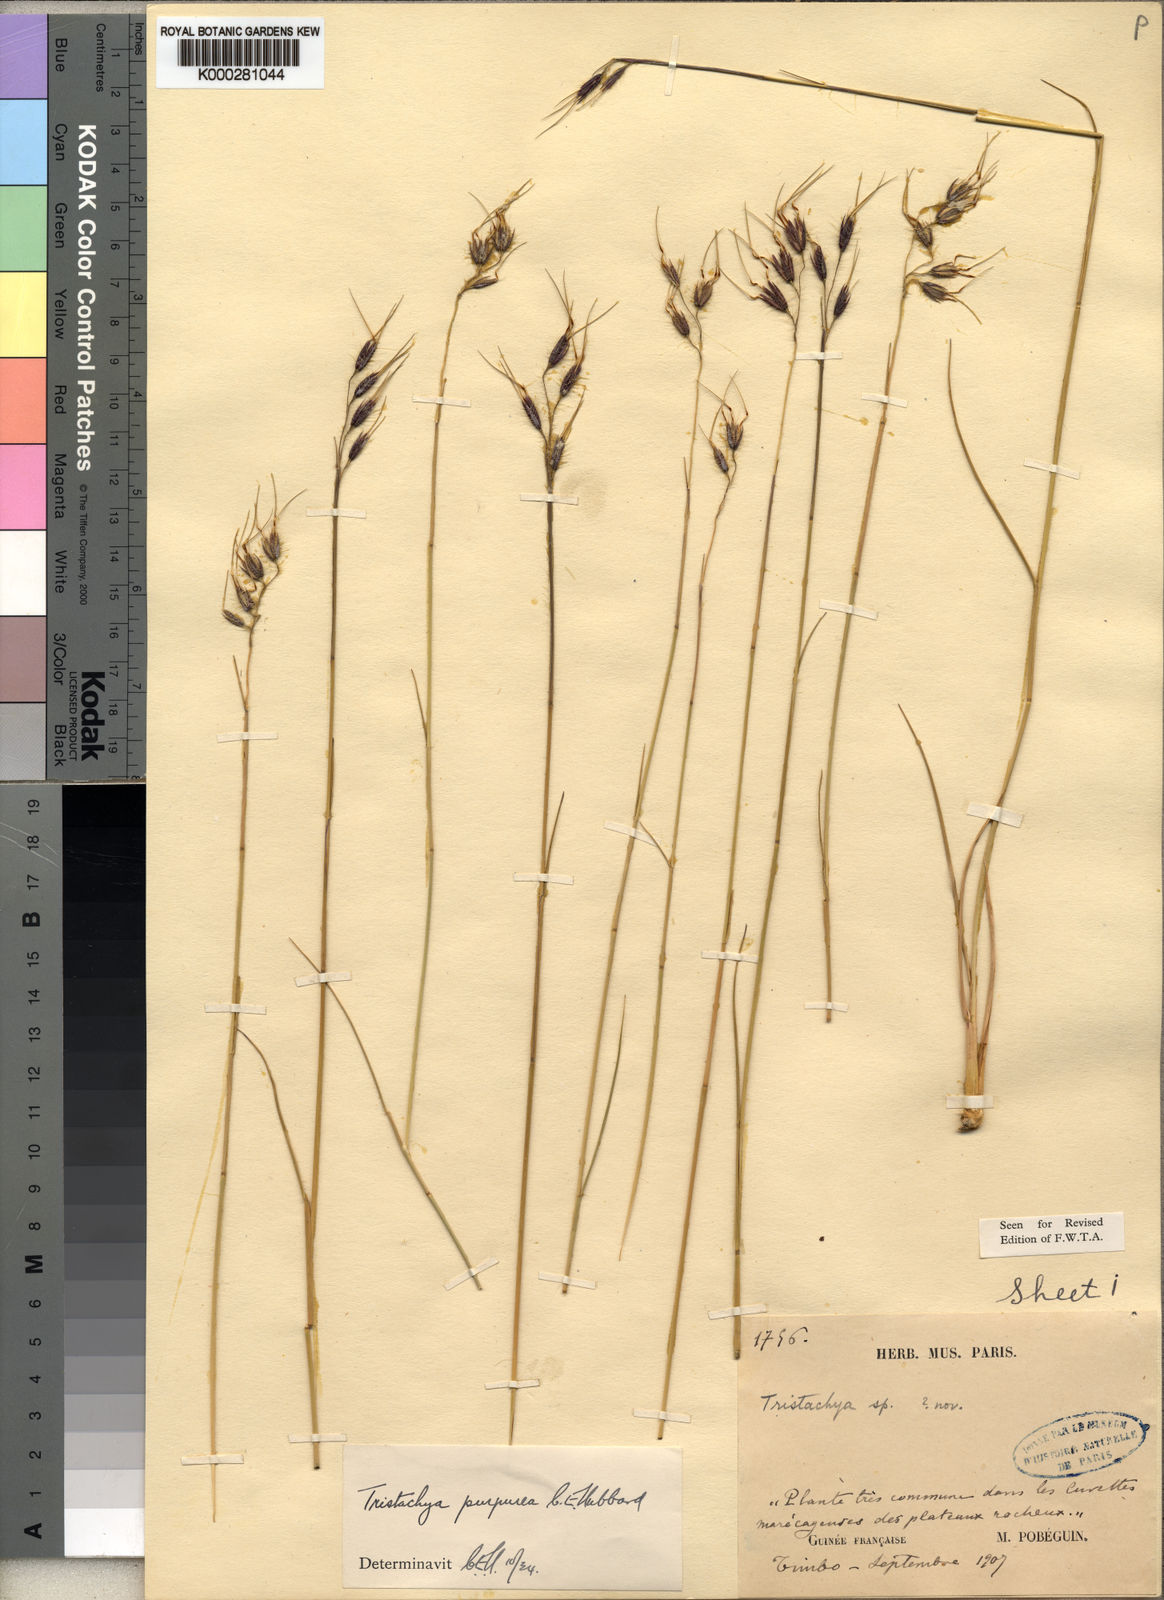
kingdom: Plantae
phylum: Tracheophyta
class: Liliopsida
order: Poales
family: Poaceae
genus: Dilophotriche
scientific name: Dilophotriche
